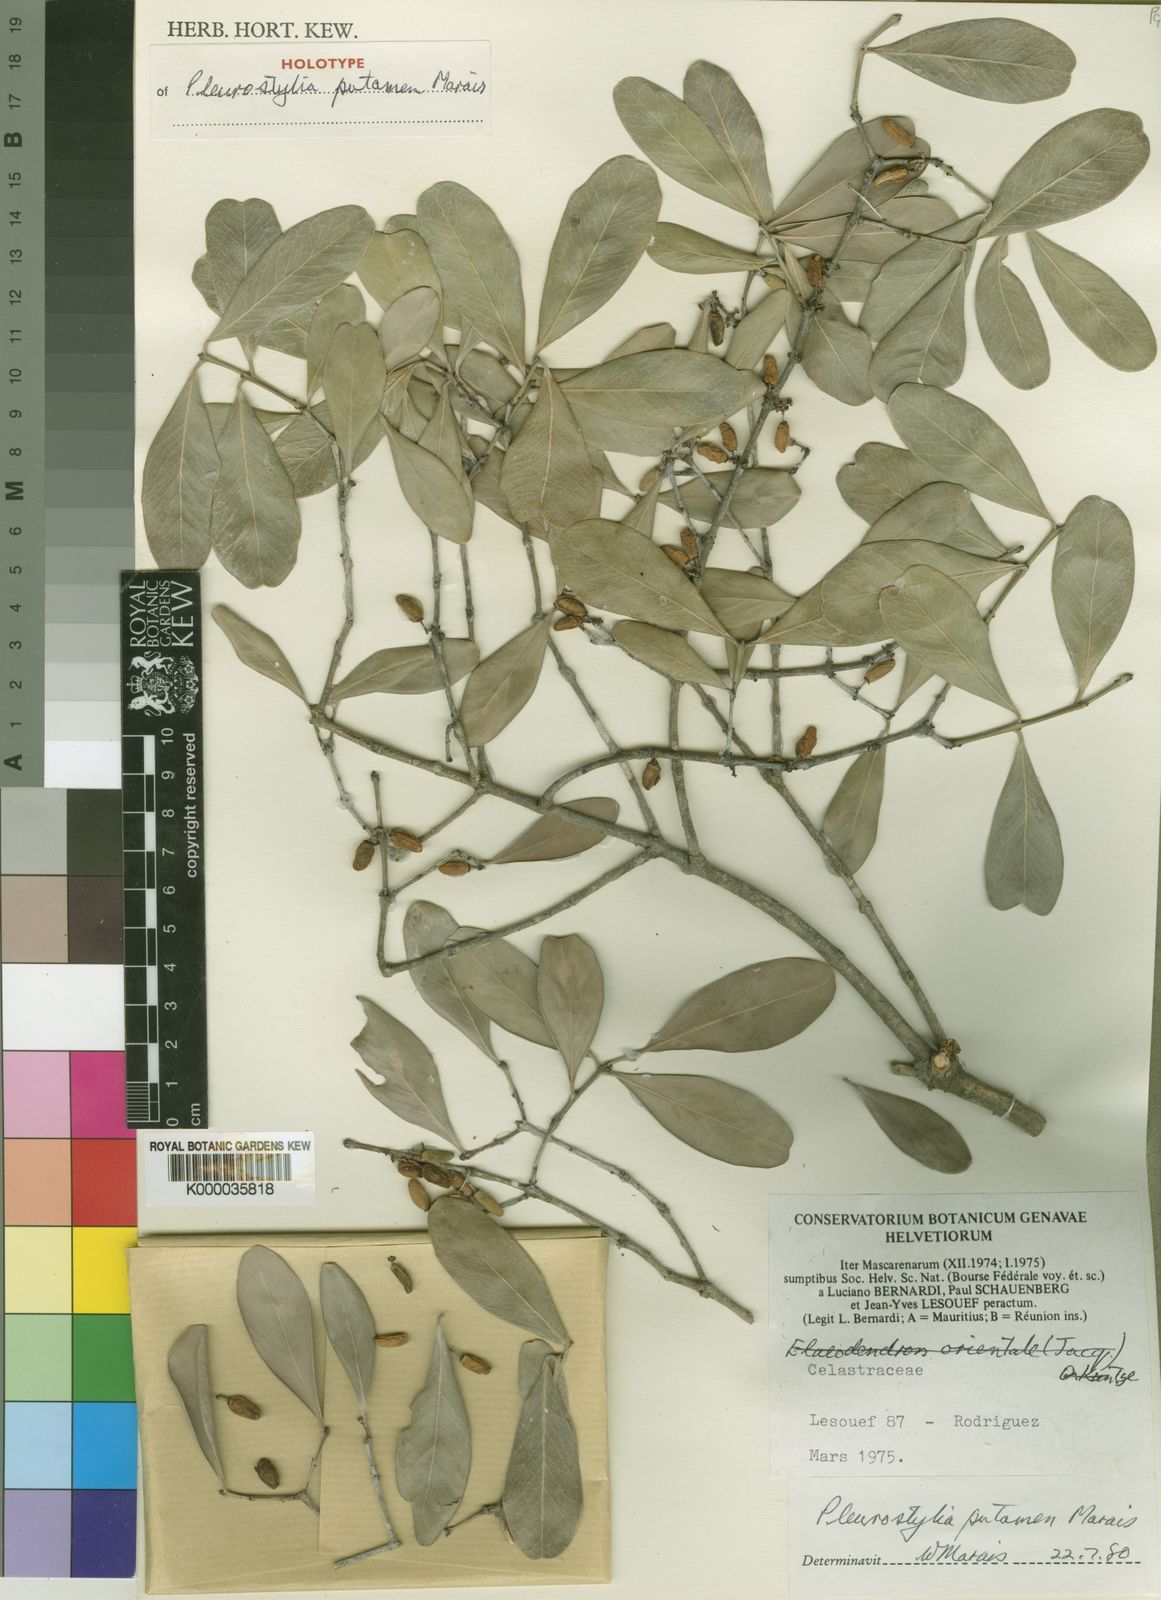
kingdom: Plantae
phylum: Tracheophyta
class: Magnoliopsida
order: Celastrales
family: Celastraceae
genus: Pleurostylia
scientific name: Pleurostylia putamen
